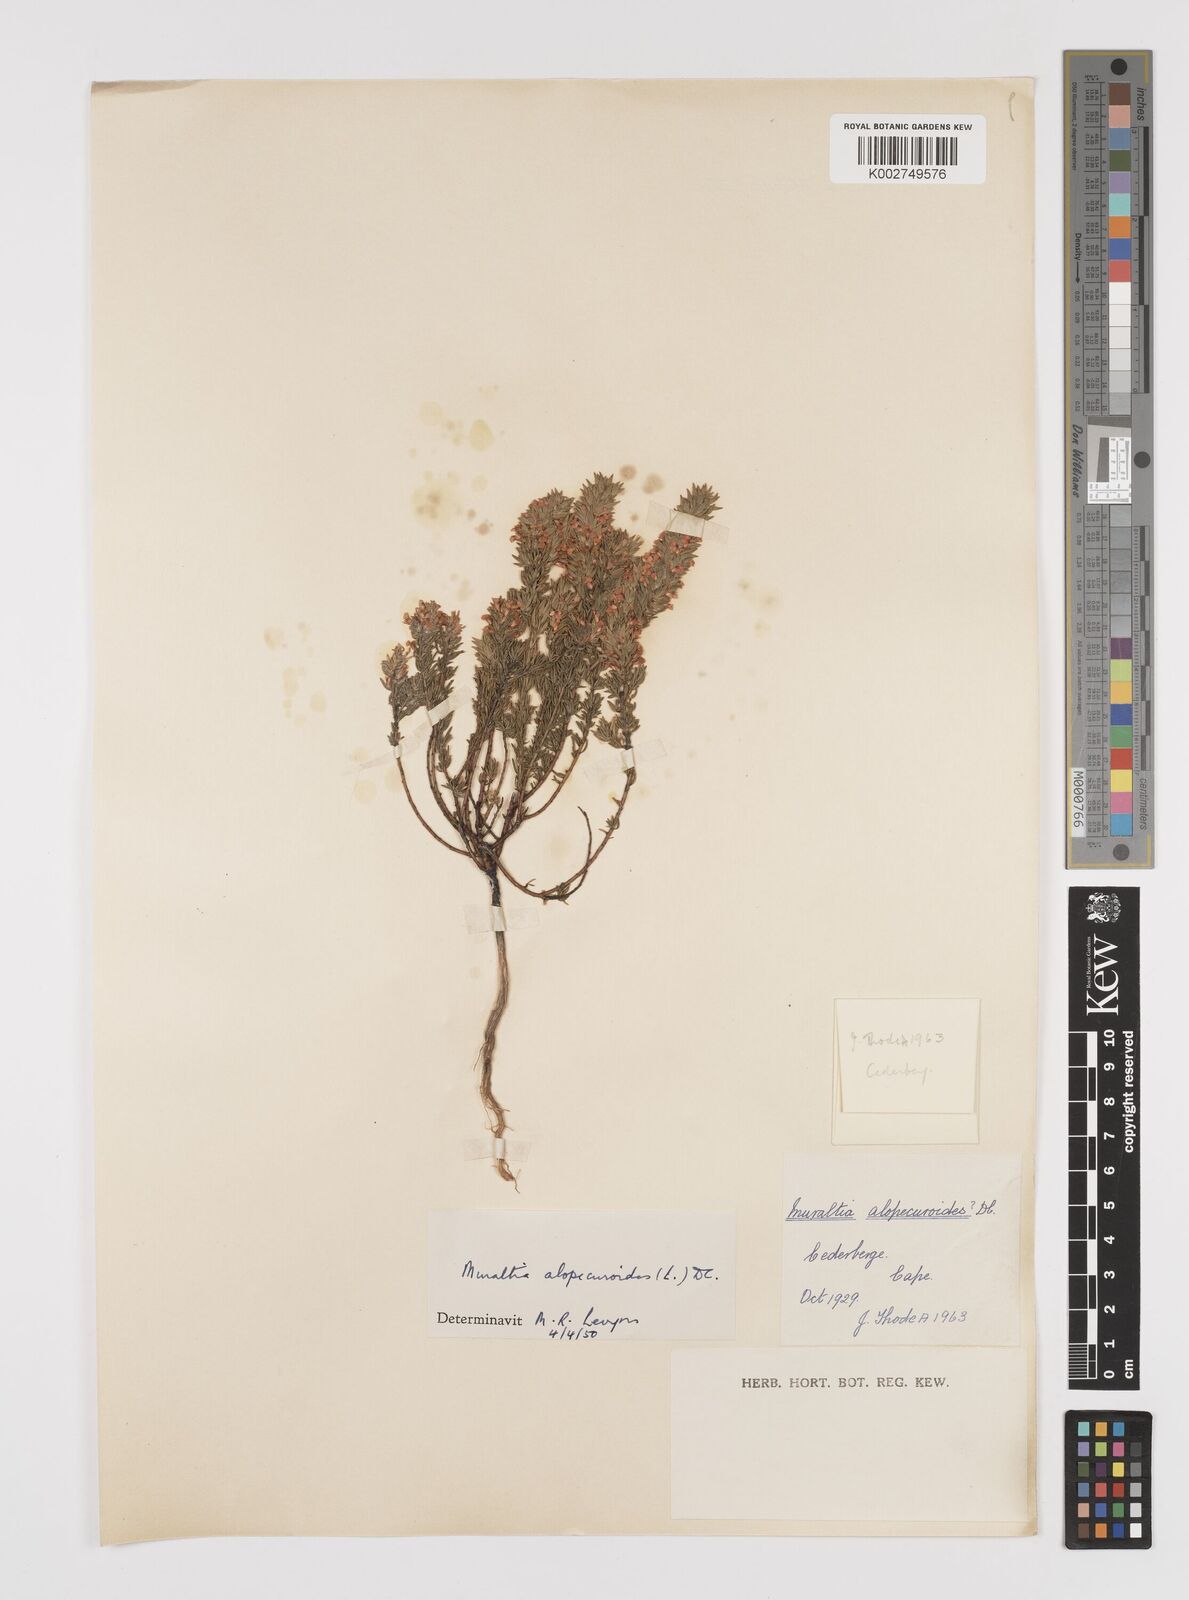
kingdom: Plantae
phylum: Tracheophyta
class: Magnoliopsida
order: Fabales
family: Polygalaceae
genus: Muraltia
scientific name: Muraltia alopecuroides
